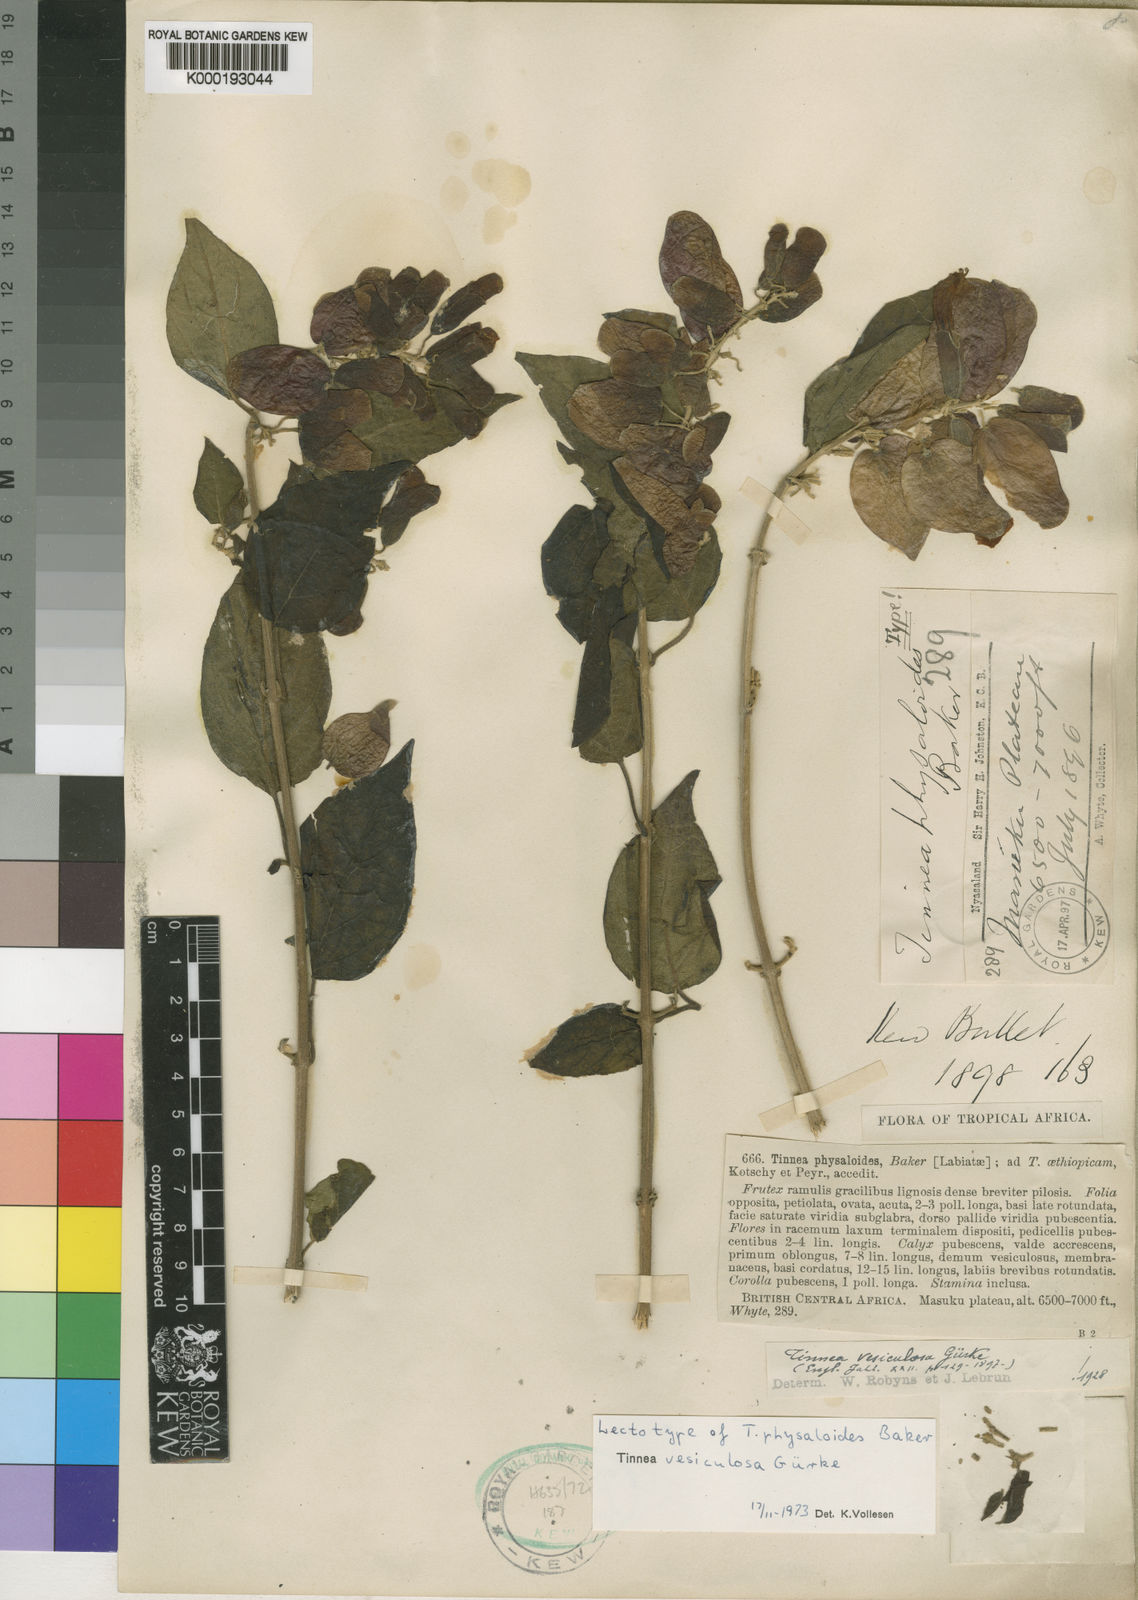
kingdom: Plantae
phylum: Tracheophyta
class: Magnoliopsida
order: Lamiales
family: Lamiaceae
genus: Tinnea
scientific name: Tinnea
